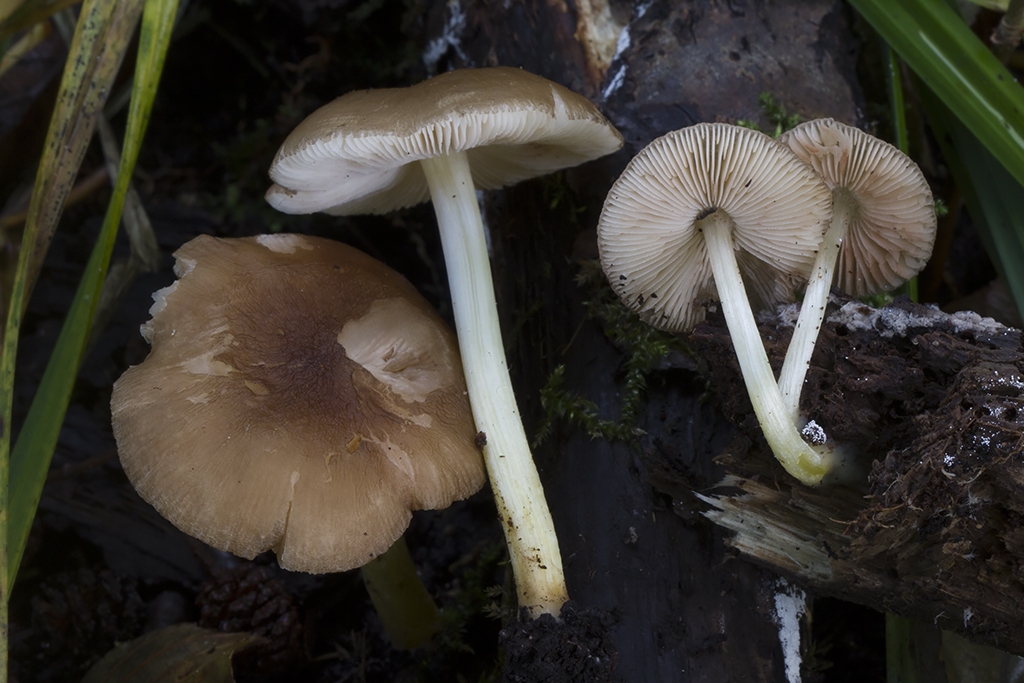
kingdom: Fungi
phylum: Basidiomycota
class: Agaricomycetes
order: Agaricales
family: Pluteaceae
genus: Pluteus
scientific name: Pluteus romellii
